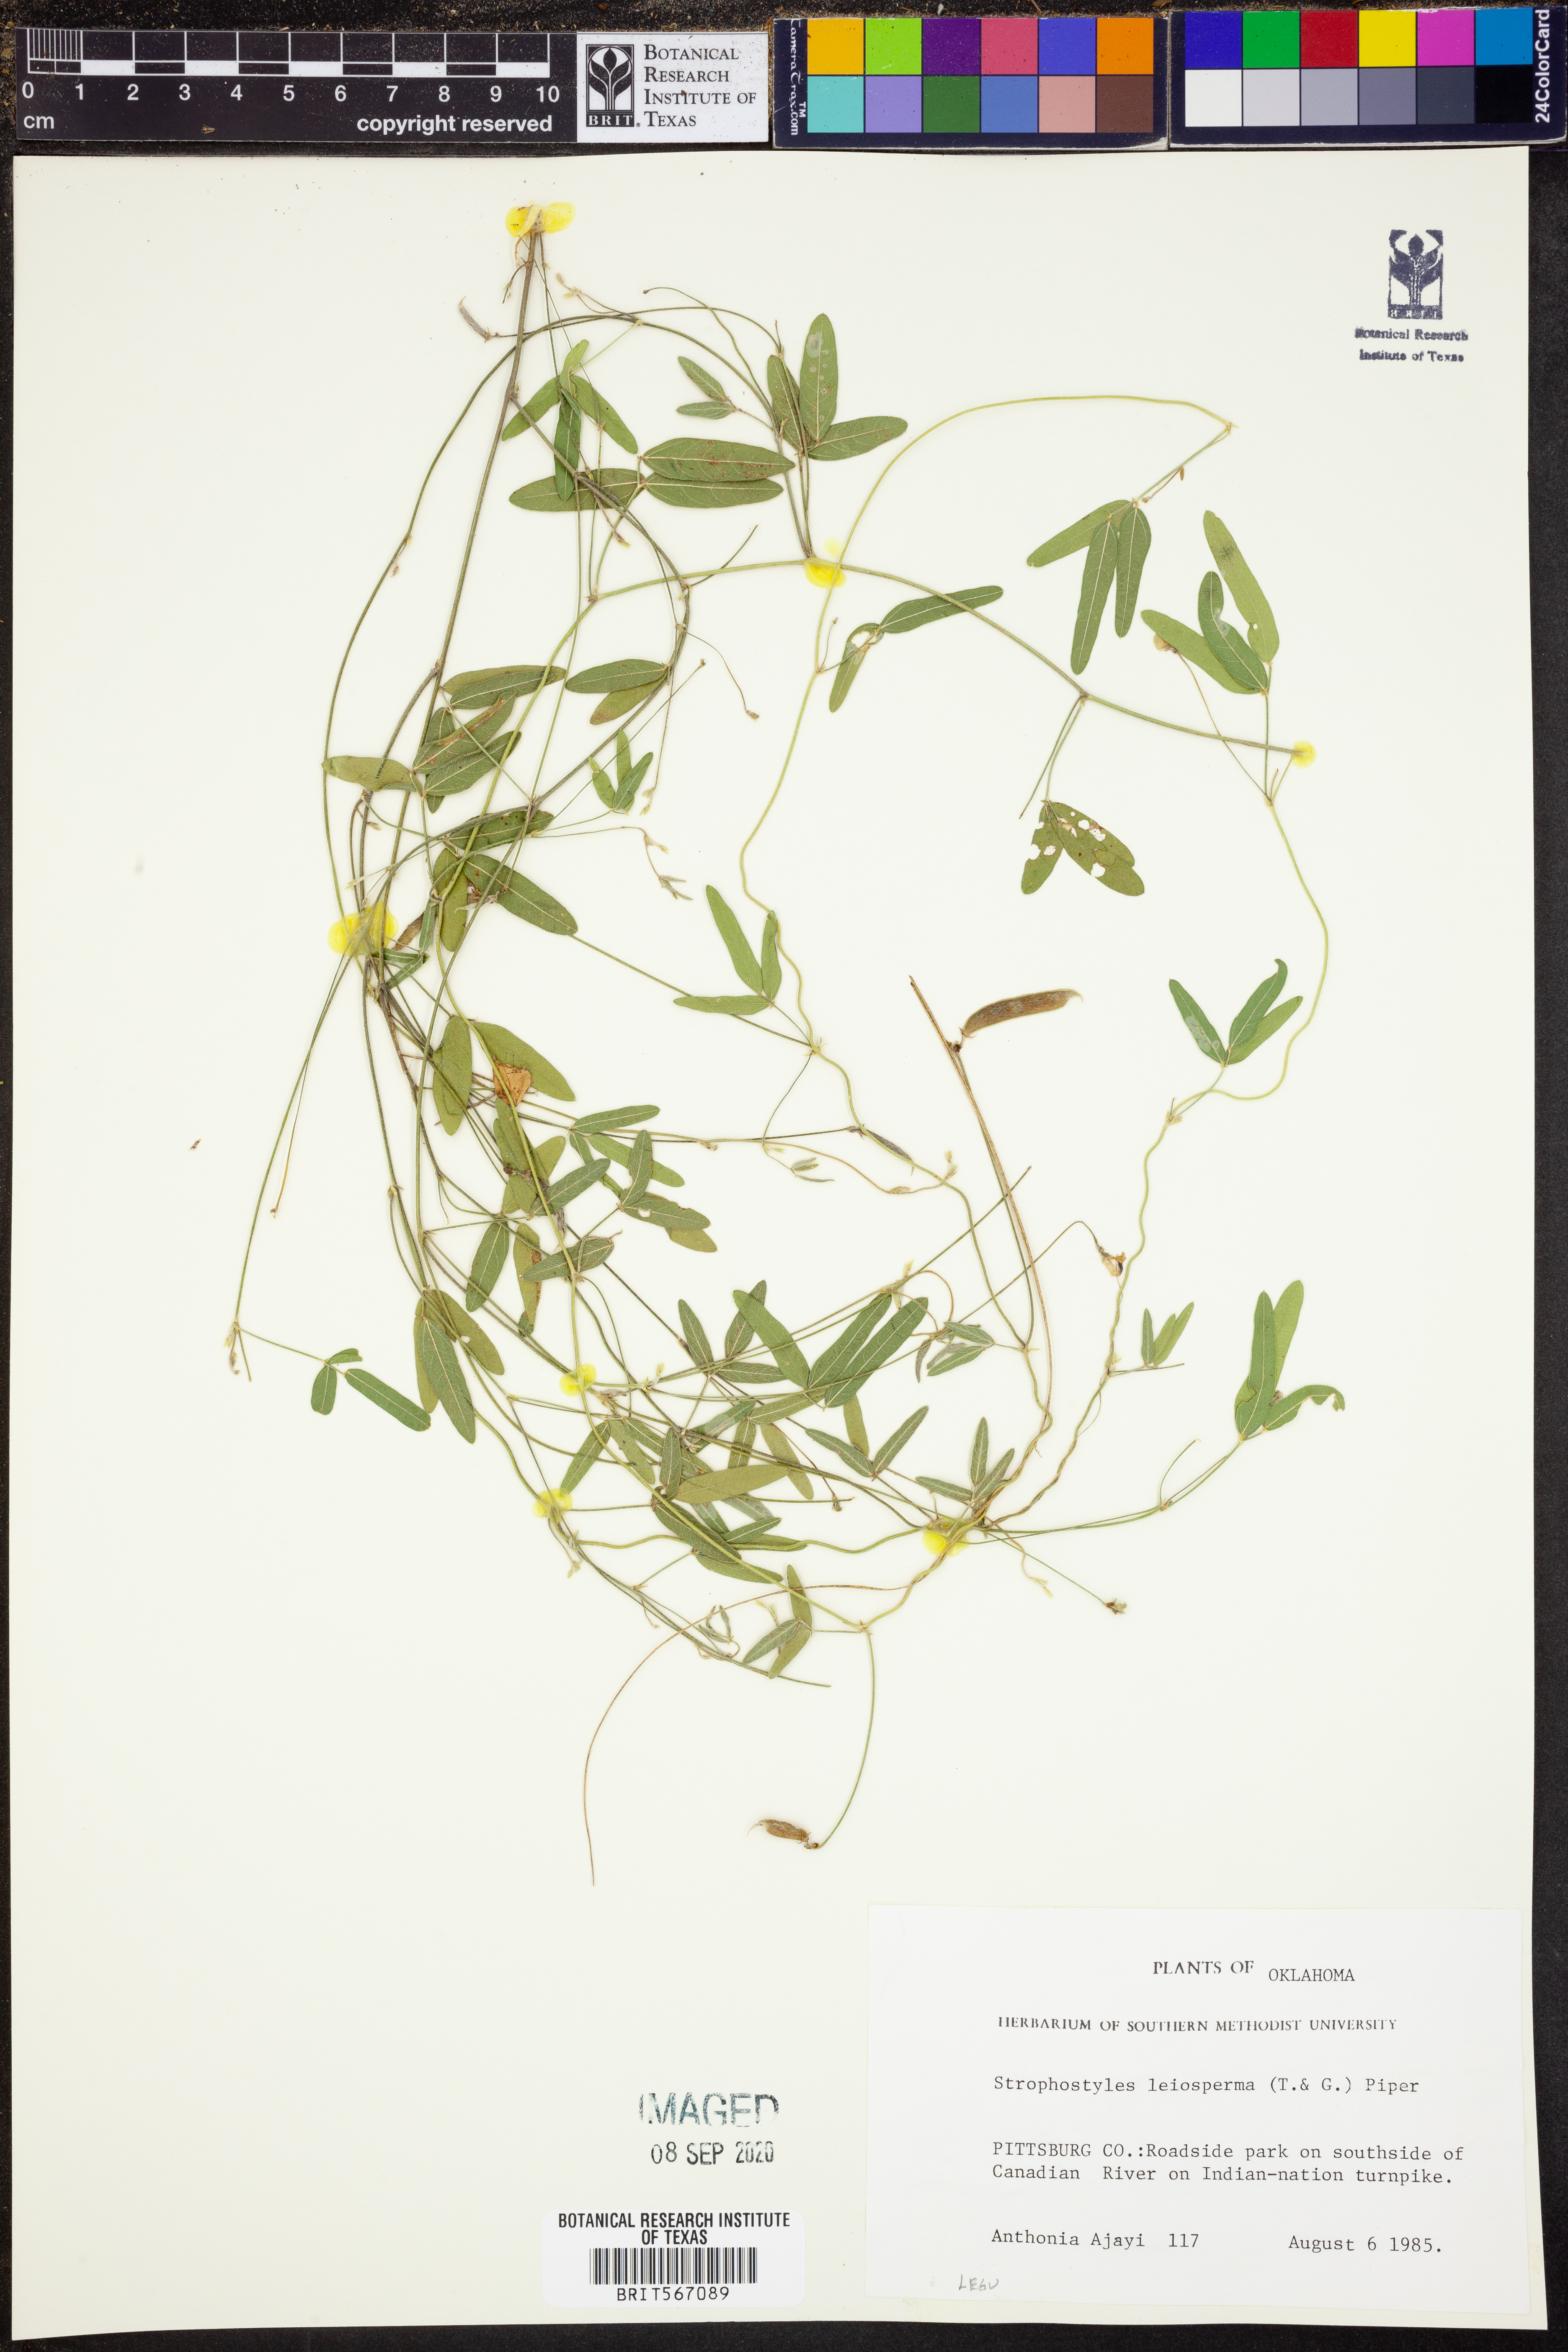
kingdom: Plantae
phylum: Tracheophyta
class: Magnoliopsida
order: Fabales
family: Fabaceae
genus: Strophostyles
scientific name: Strophostyles leiosperma
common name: Smooth-seed wild bean
